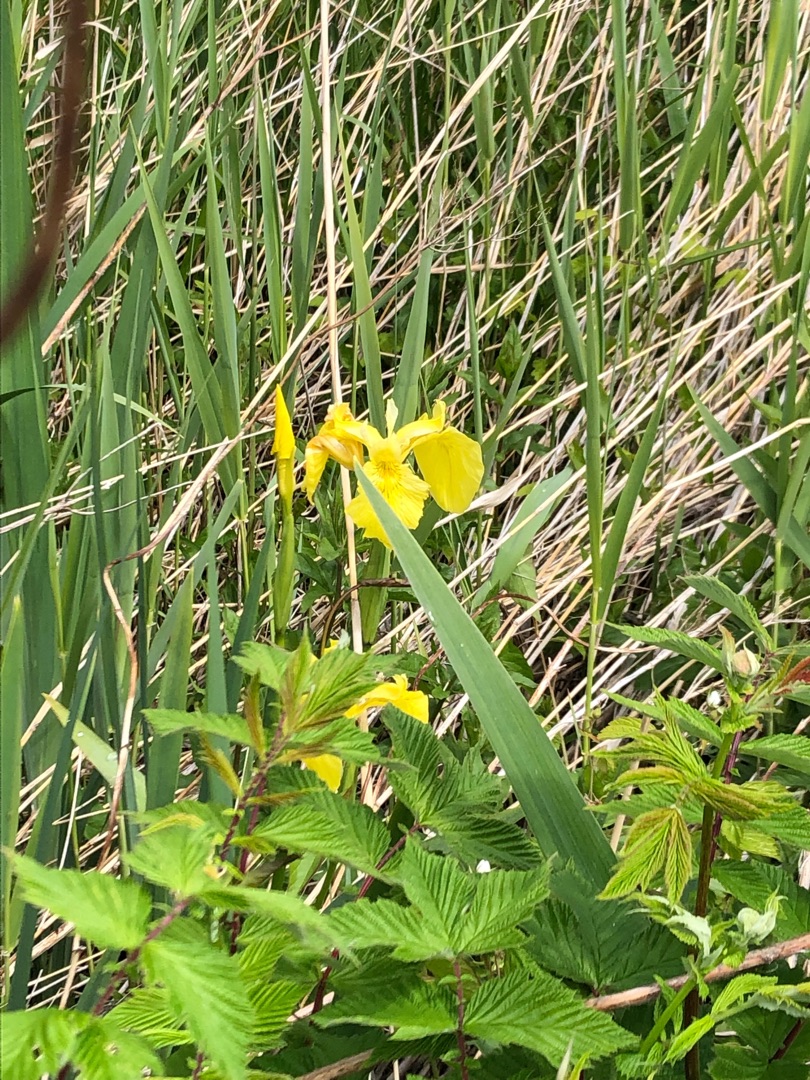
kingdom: Plantae
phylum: Tracheophyta
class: Liliopsida
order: Asparagales
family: Iridaceae
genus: Iris
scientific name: Iris pseudacorus
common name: Gul iris
